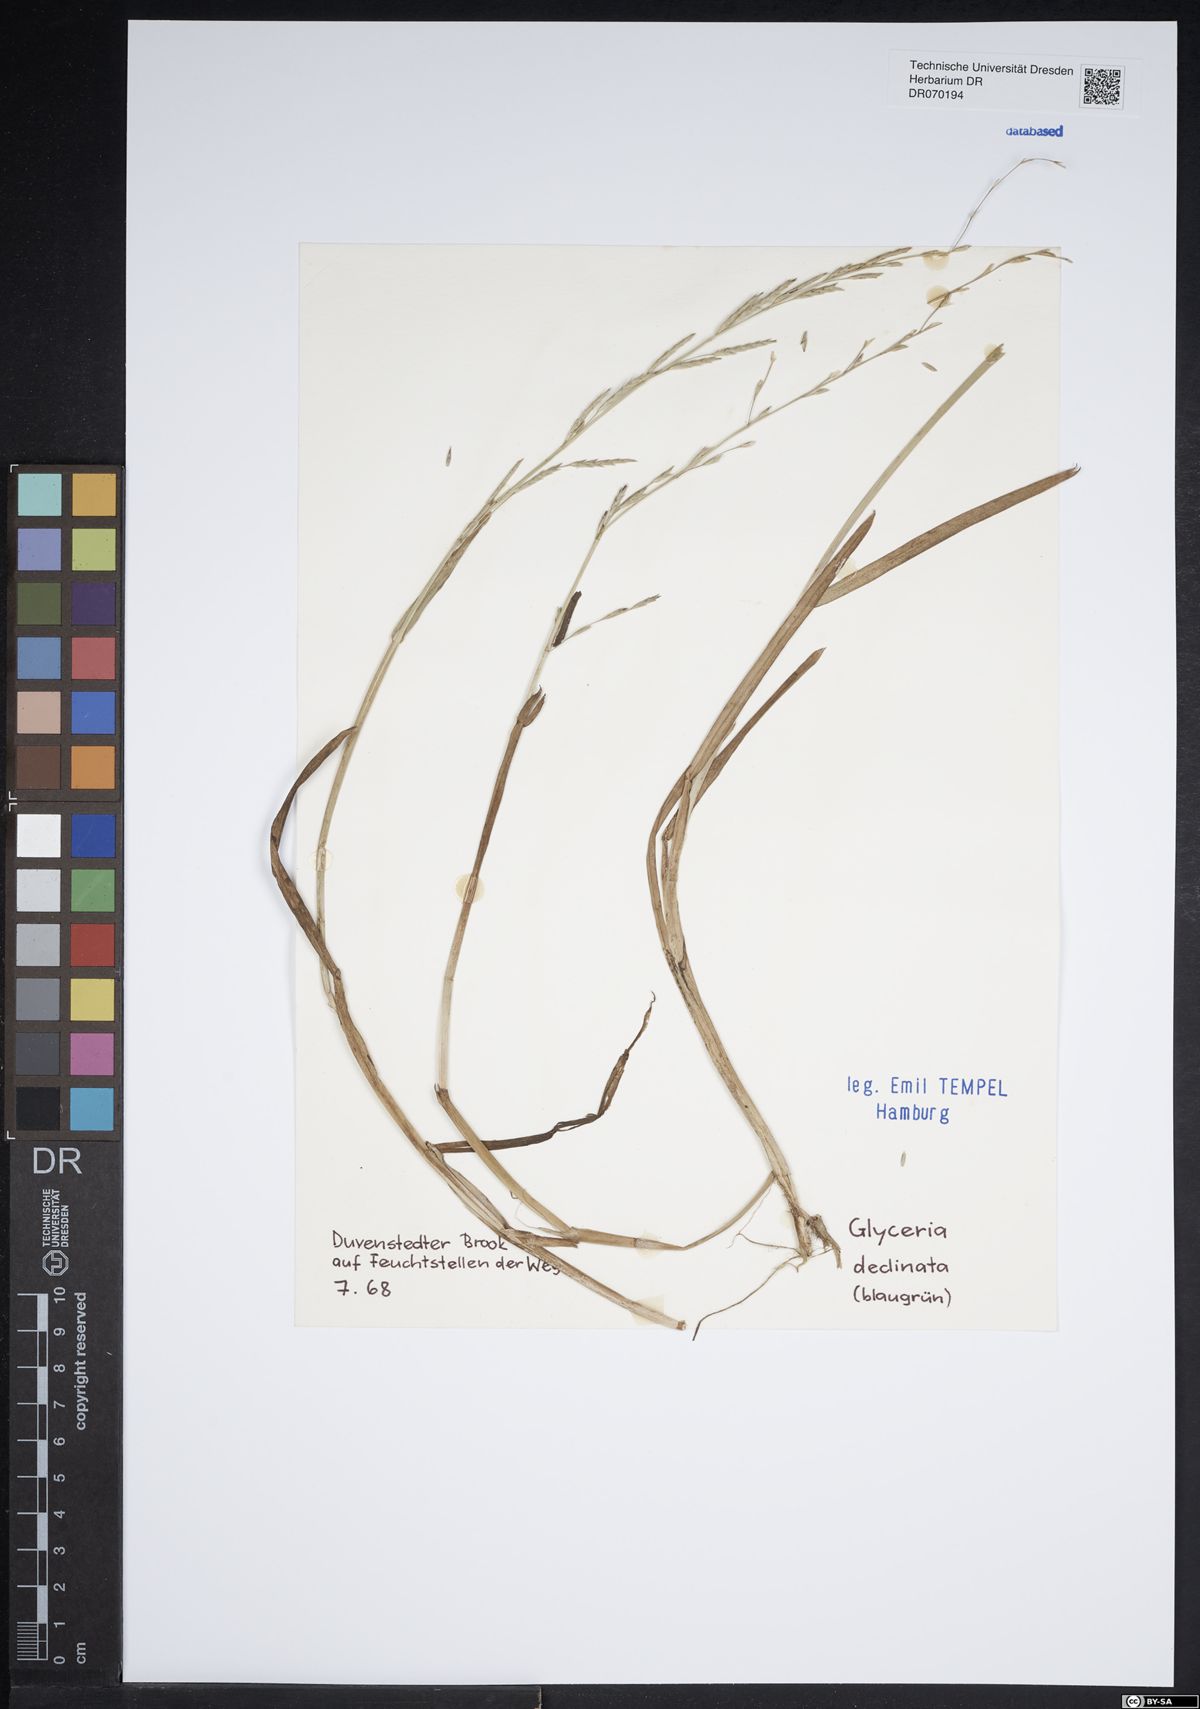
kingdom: Plantae
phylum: Tracheophyta
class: Liliopsida
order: Poales
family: Poaceae
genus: Glyceria
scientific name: Glyceria declinata
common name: Small sweet-grass
